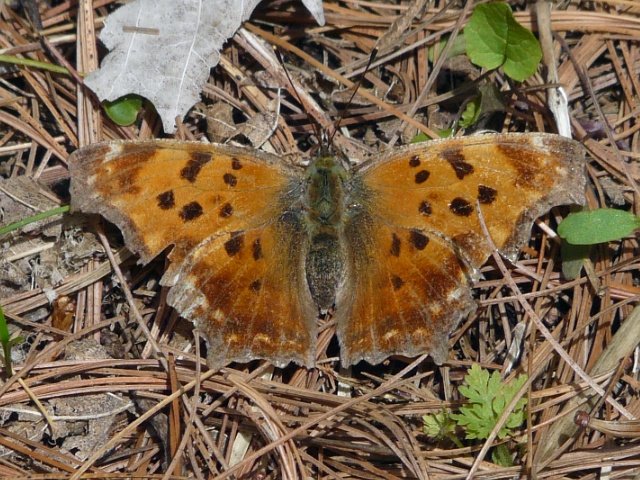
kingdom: Animalia
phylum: Arthropoda
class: Insecta
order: Lepidoptera
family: Nymphalidae
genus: Polygonia
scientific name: Polygonia comma
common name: Eastern Comma
